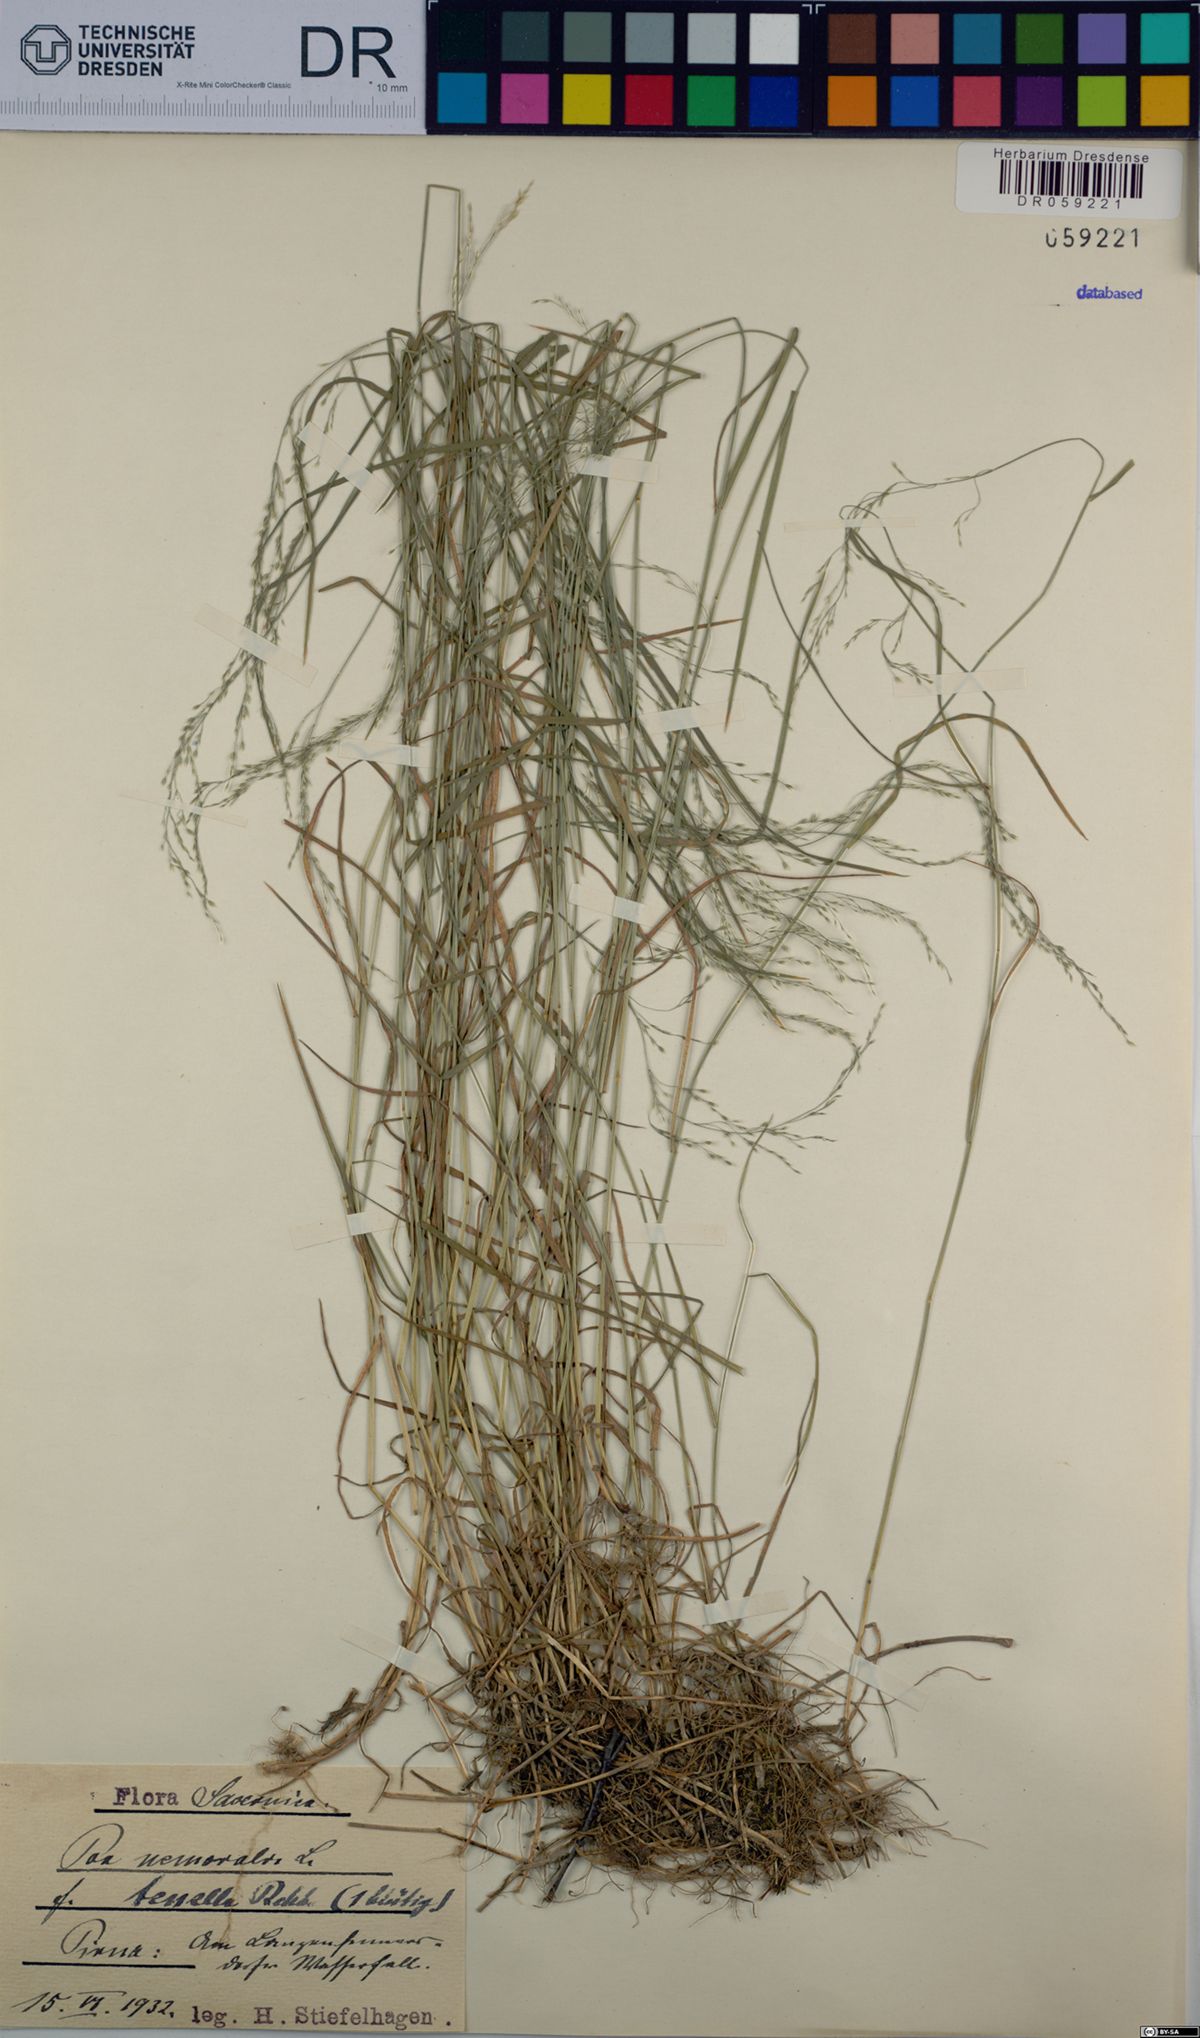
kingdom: Plantae
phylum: Tracheophyta
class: Liliopsida
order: Poales
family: Poaceae
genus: Poa
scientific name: Poa nemoralis
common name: Wood bluegrass
